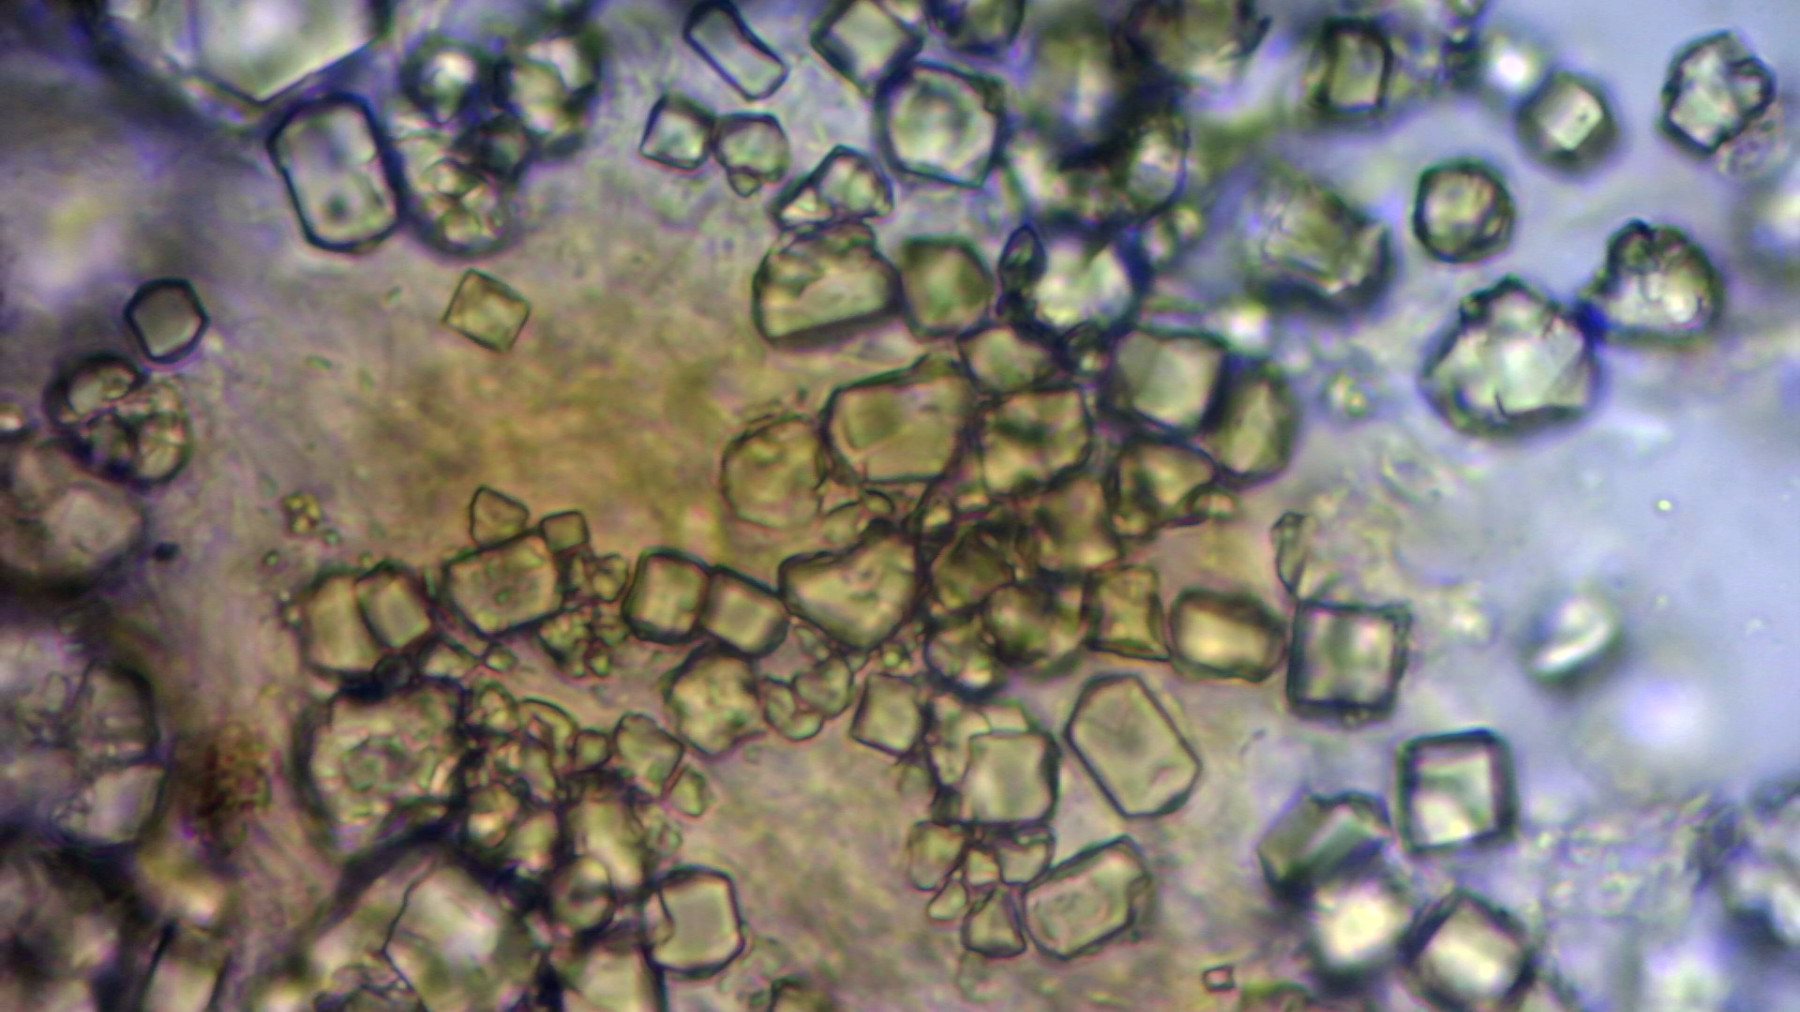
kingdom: Fungi
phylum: Basidiomycota
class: Agaricomycetes
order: Agaricales
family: Pleurotaceae
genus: Resupinatus
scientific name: Resupinatus poriaeformis
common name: tæpperør
